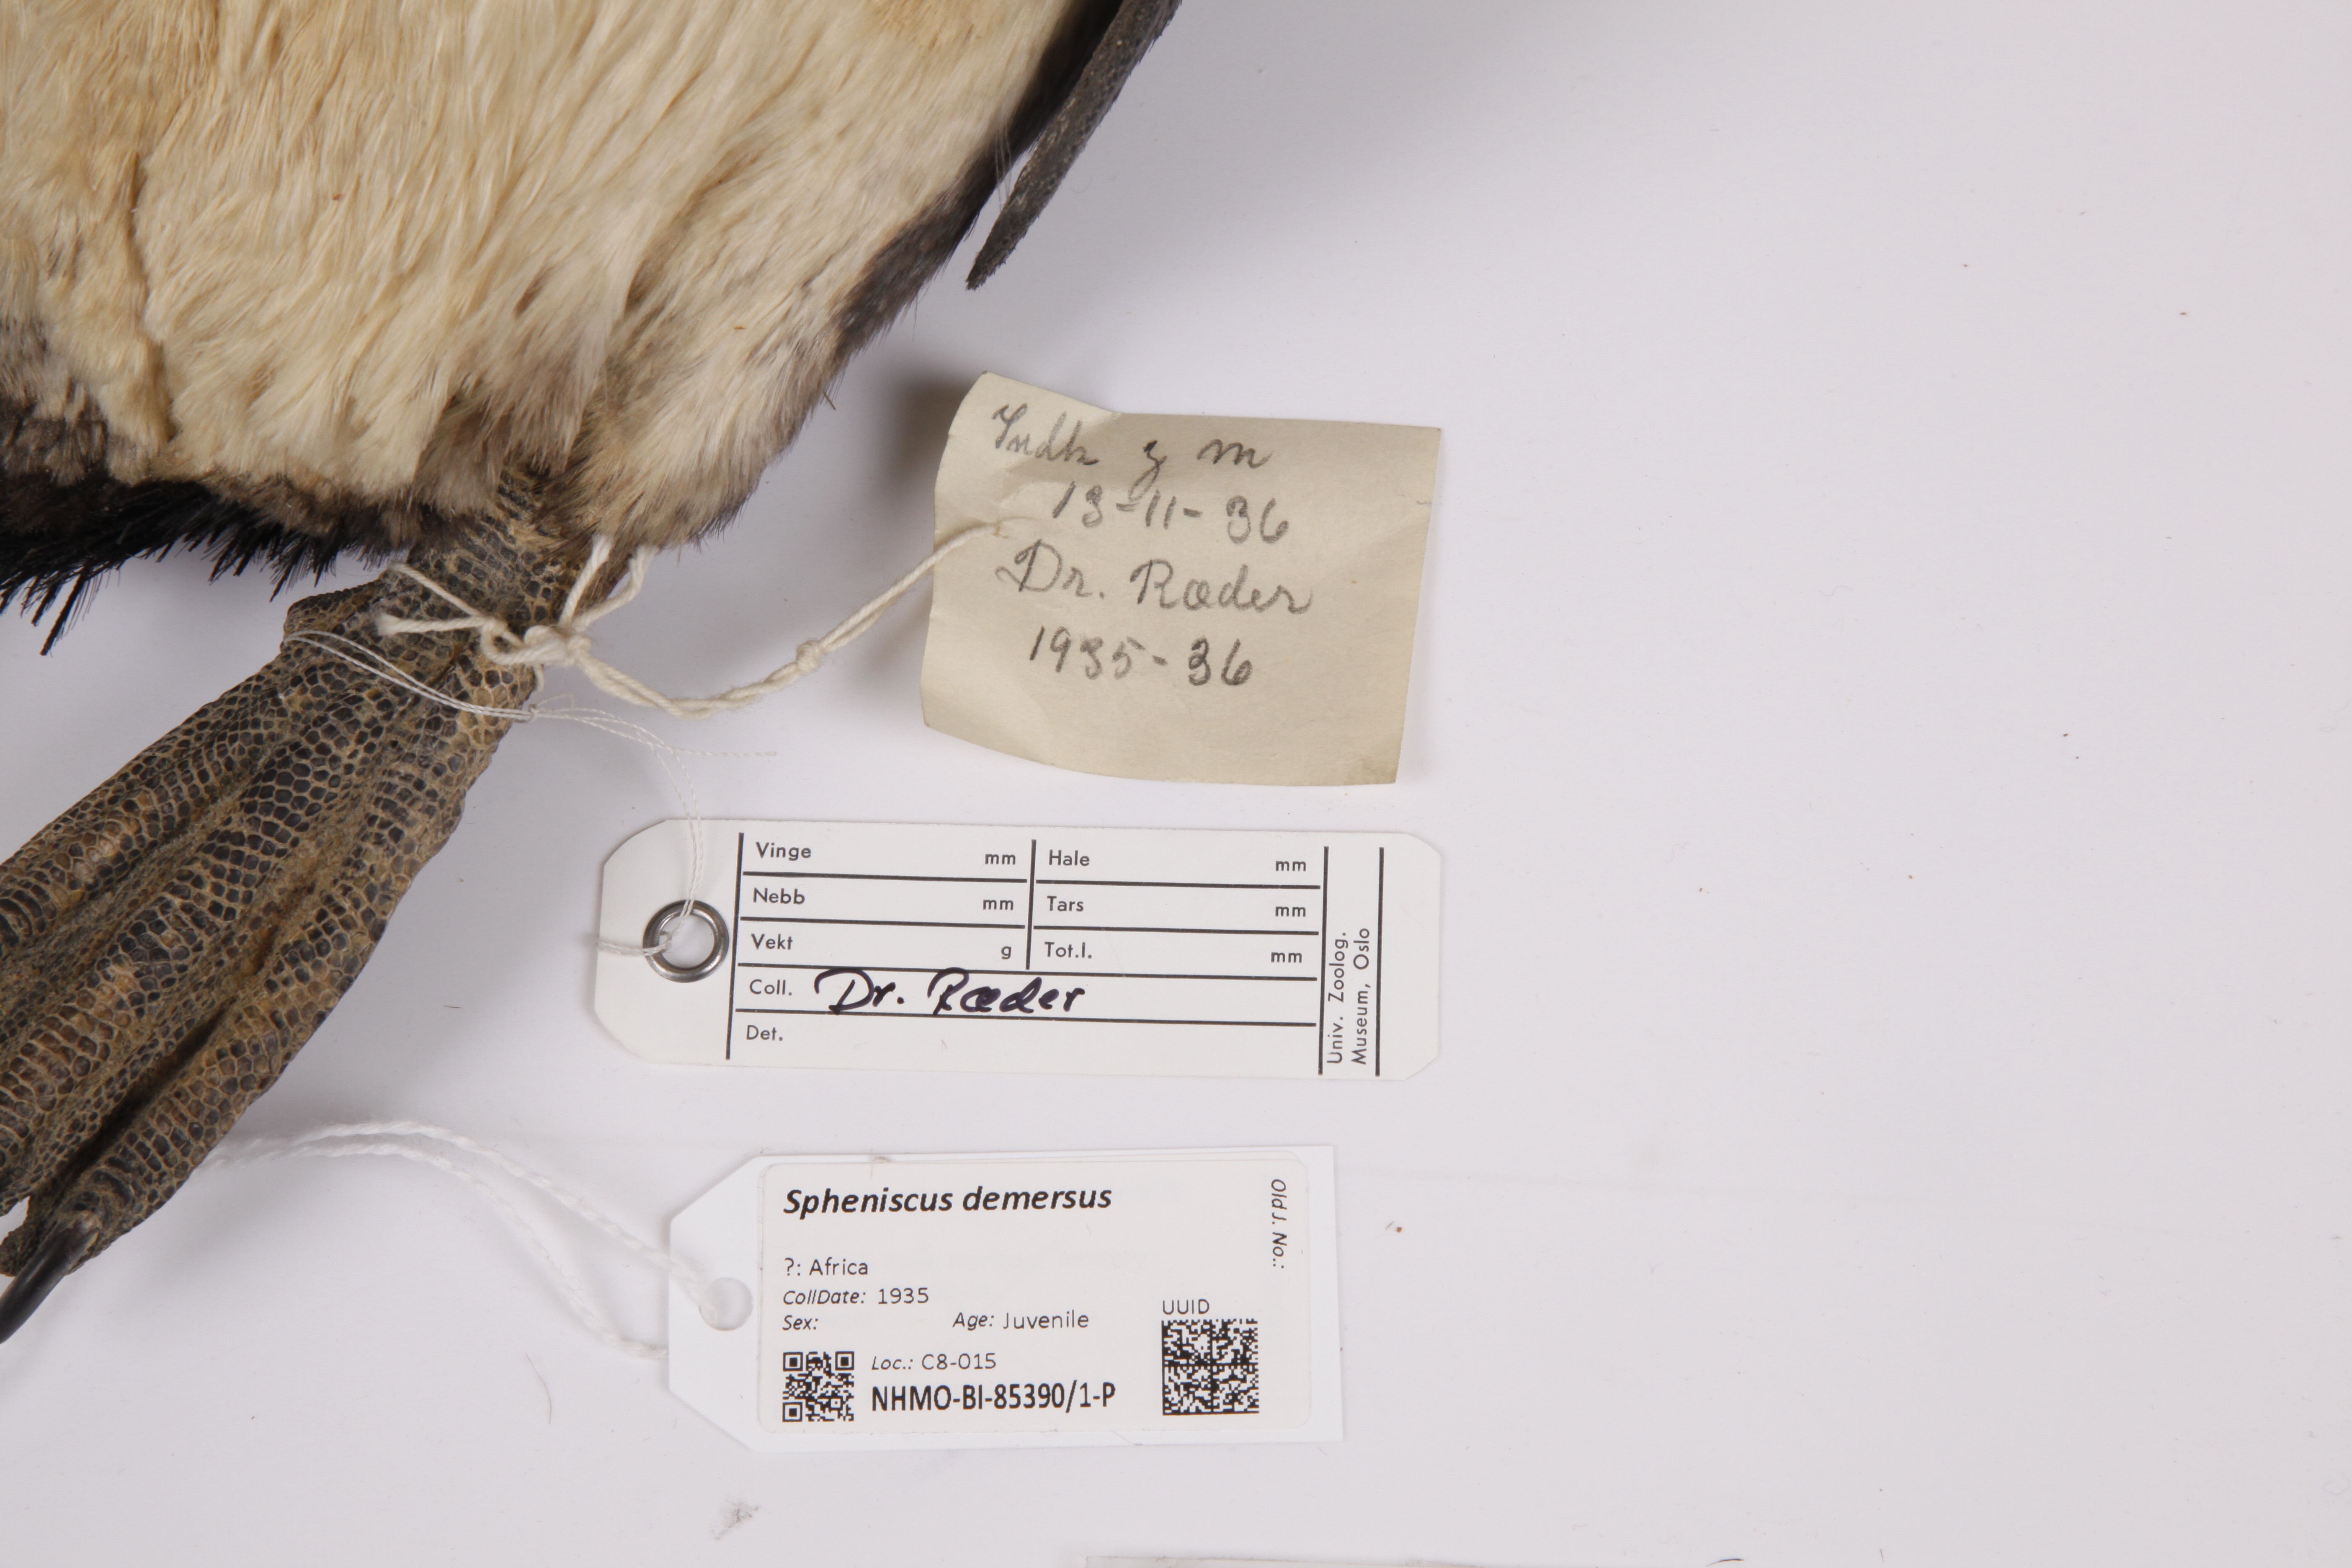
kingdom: Animalia
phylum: Chordata
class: Aves
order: Sphenisciformes
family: Spheniscidae
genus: Spheniscus
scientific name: Spheniscus demersus
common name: African penguin
